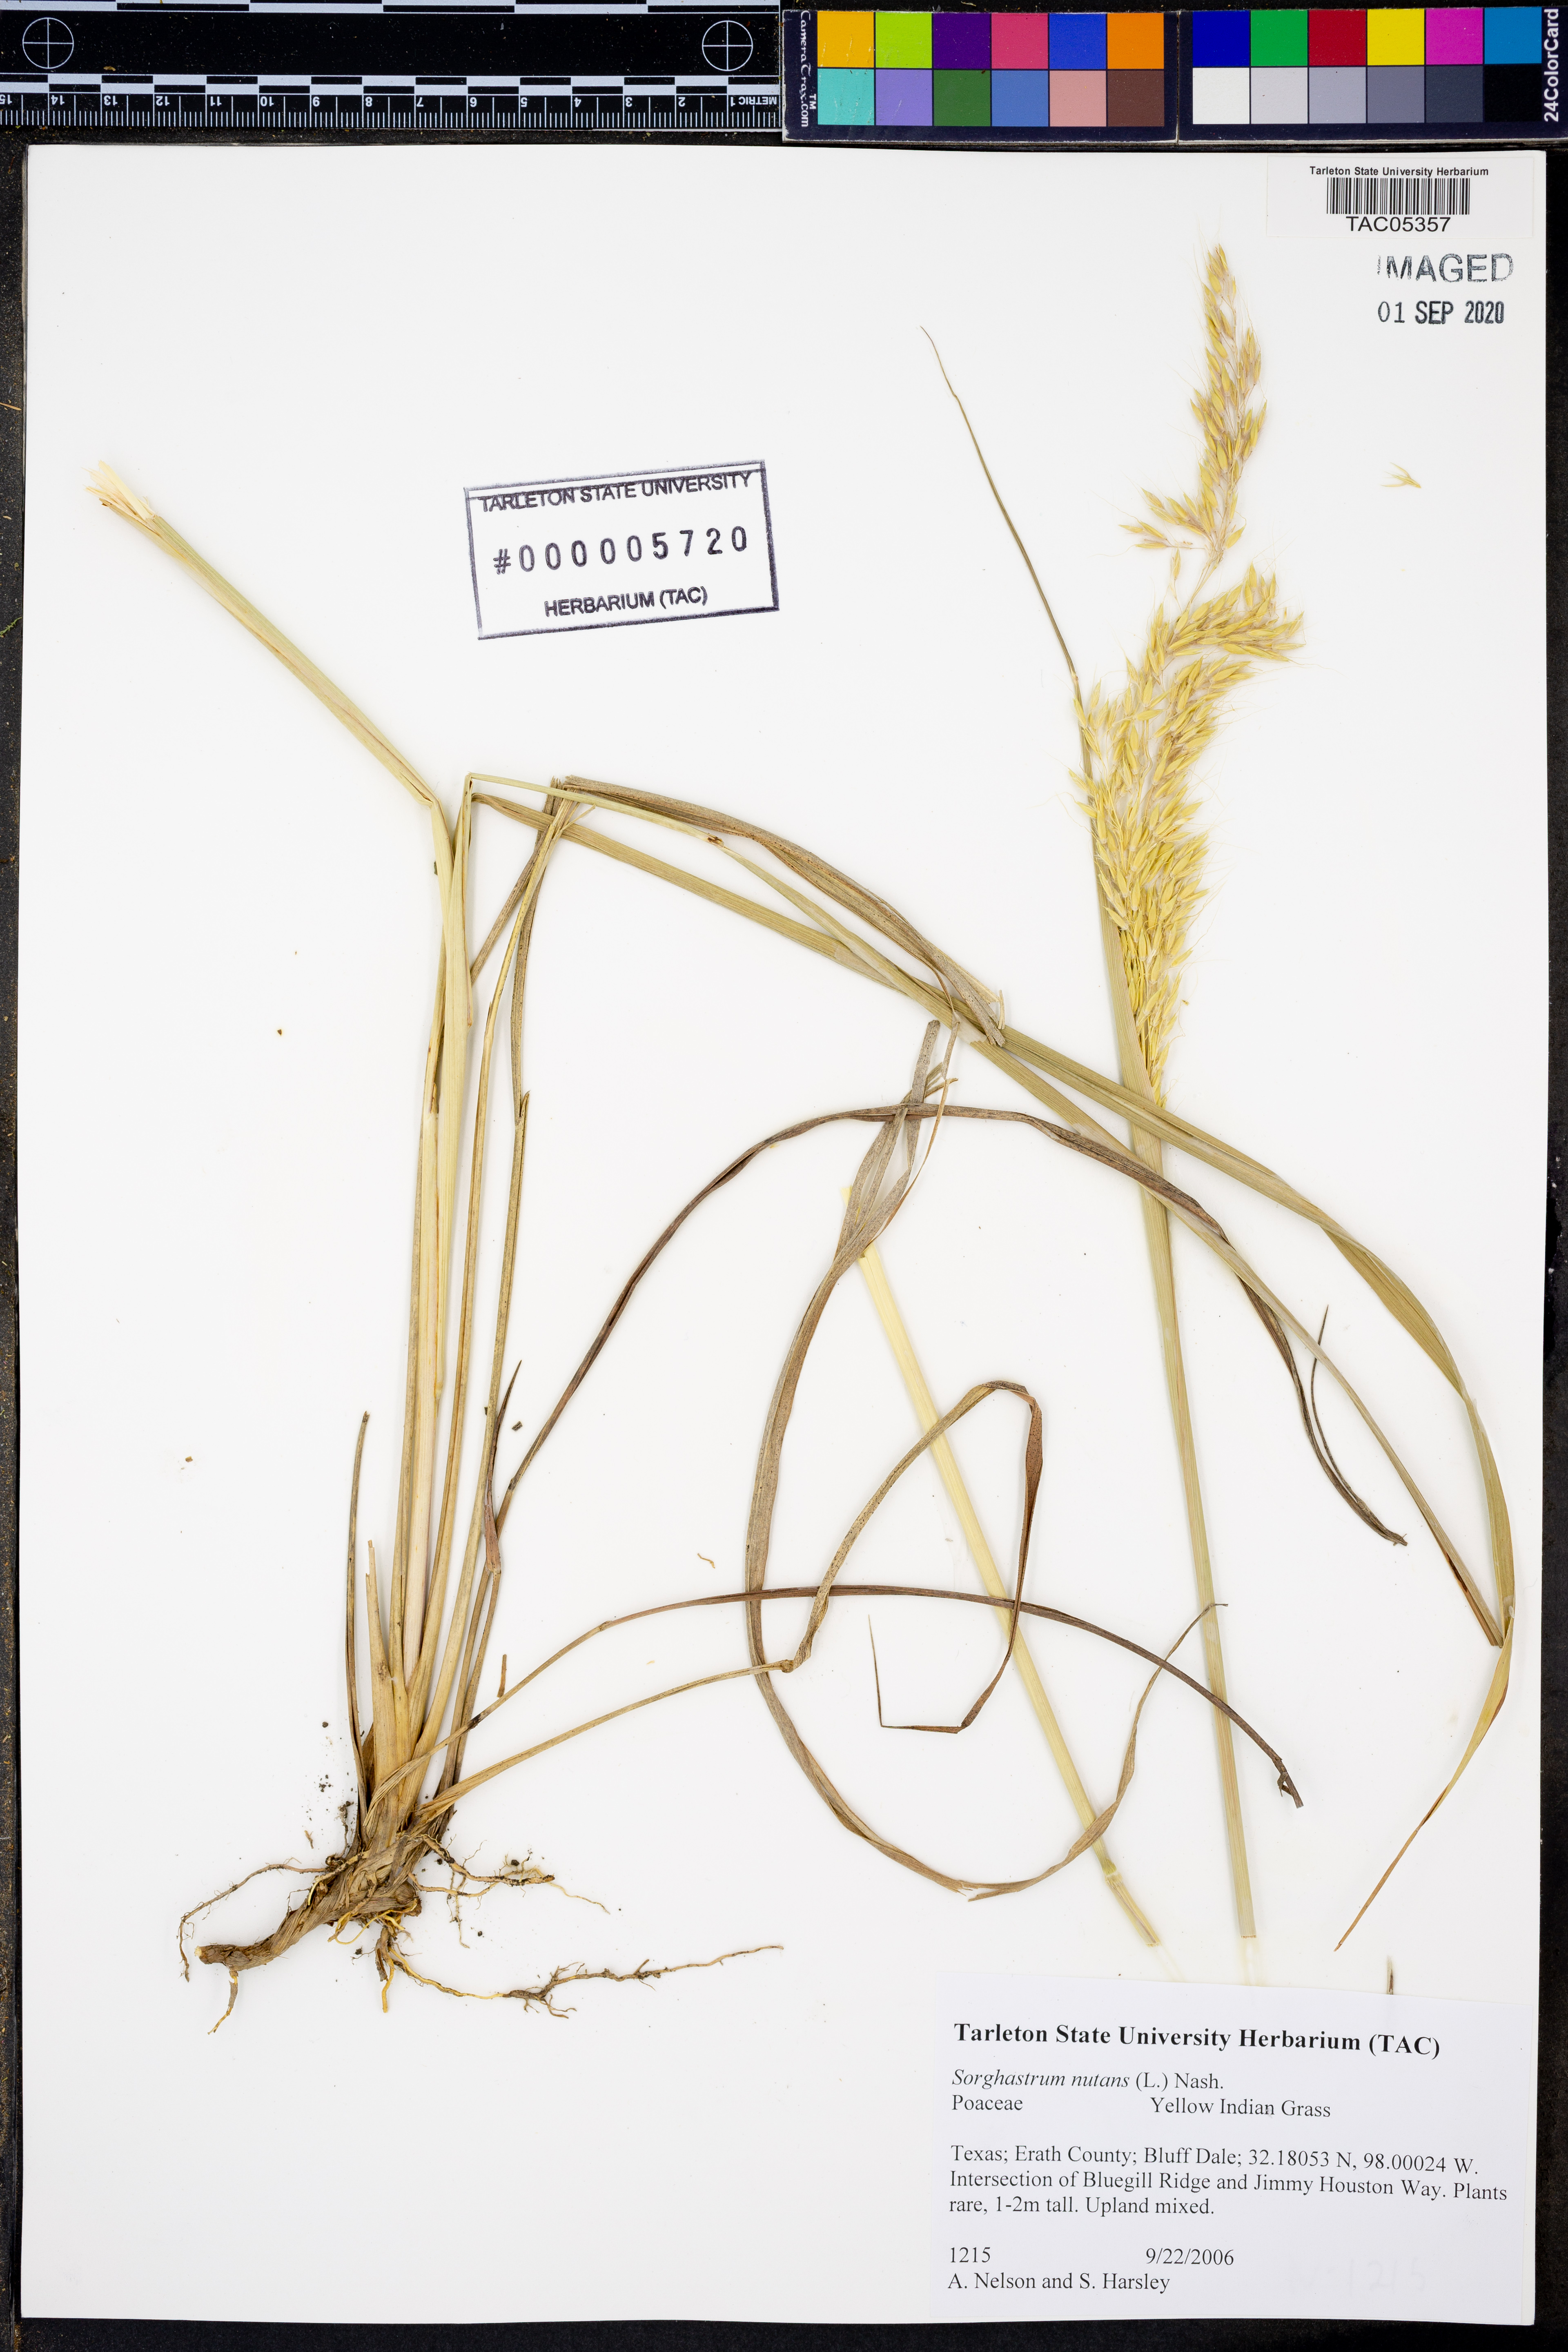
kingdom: Plantae
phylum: Tracheophyta
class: Liliopsida
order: Poales
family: Poaceae
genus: Sorghastrum
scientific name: Sorghastrum nutans
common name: Indian grass
